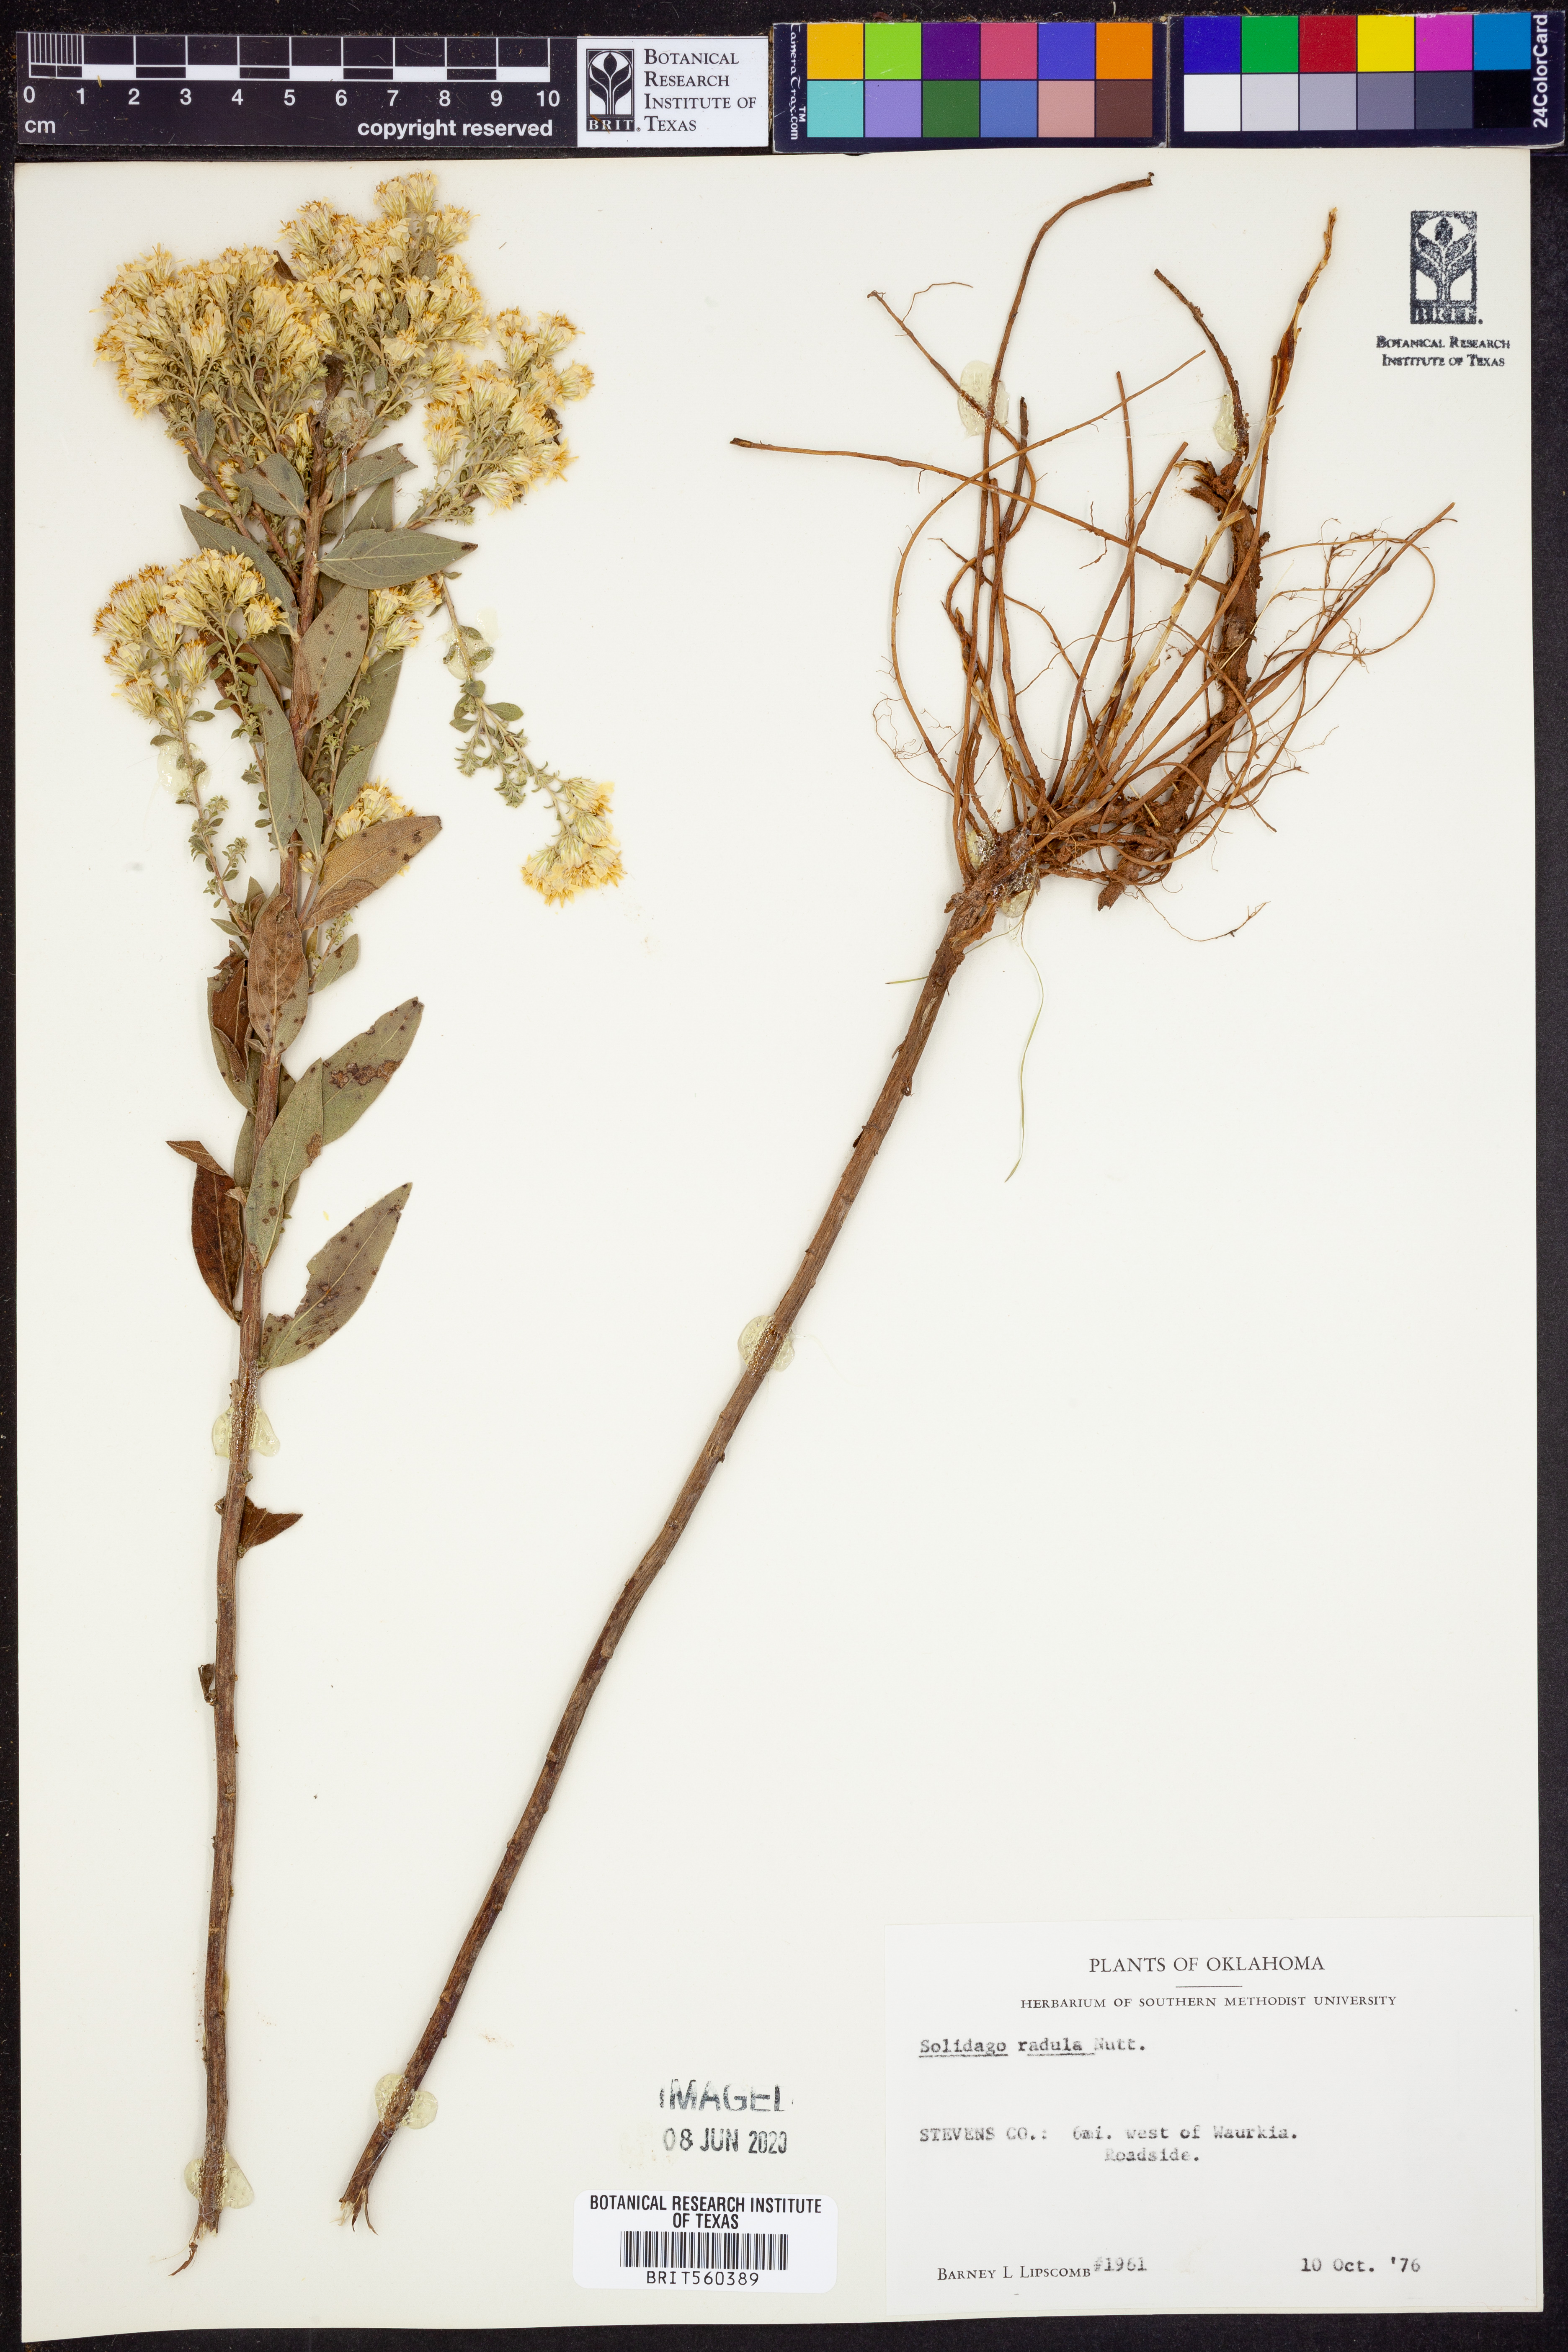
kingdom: Plantae
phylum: Tracheophyta
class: Magnoliopsida
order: Asterales
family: Asteraceae
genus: Solidago
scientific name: Solidago radula
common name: Western rough goldenrod
